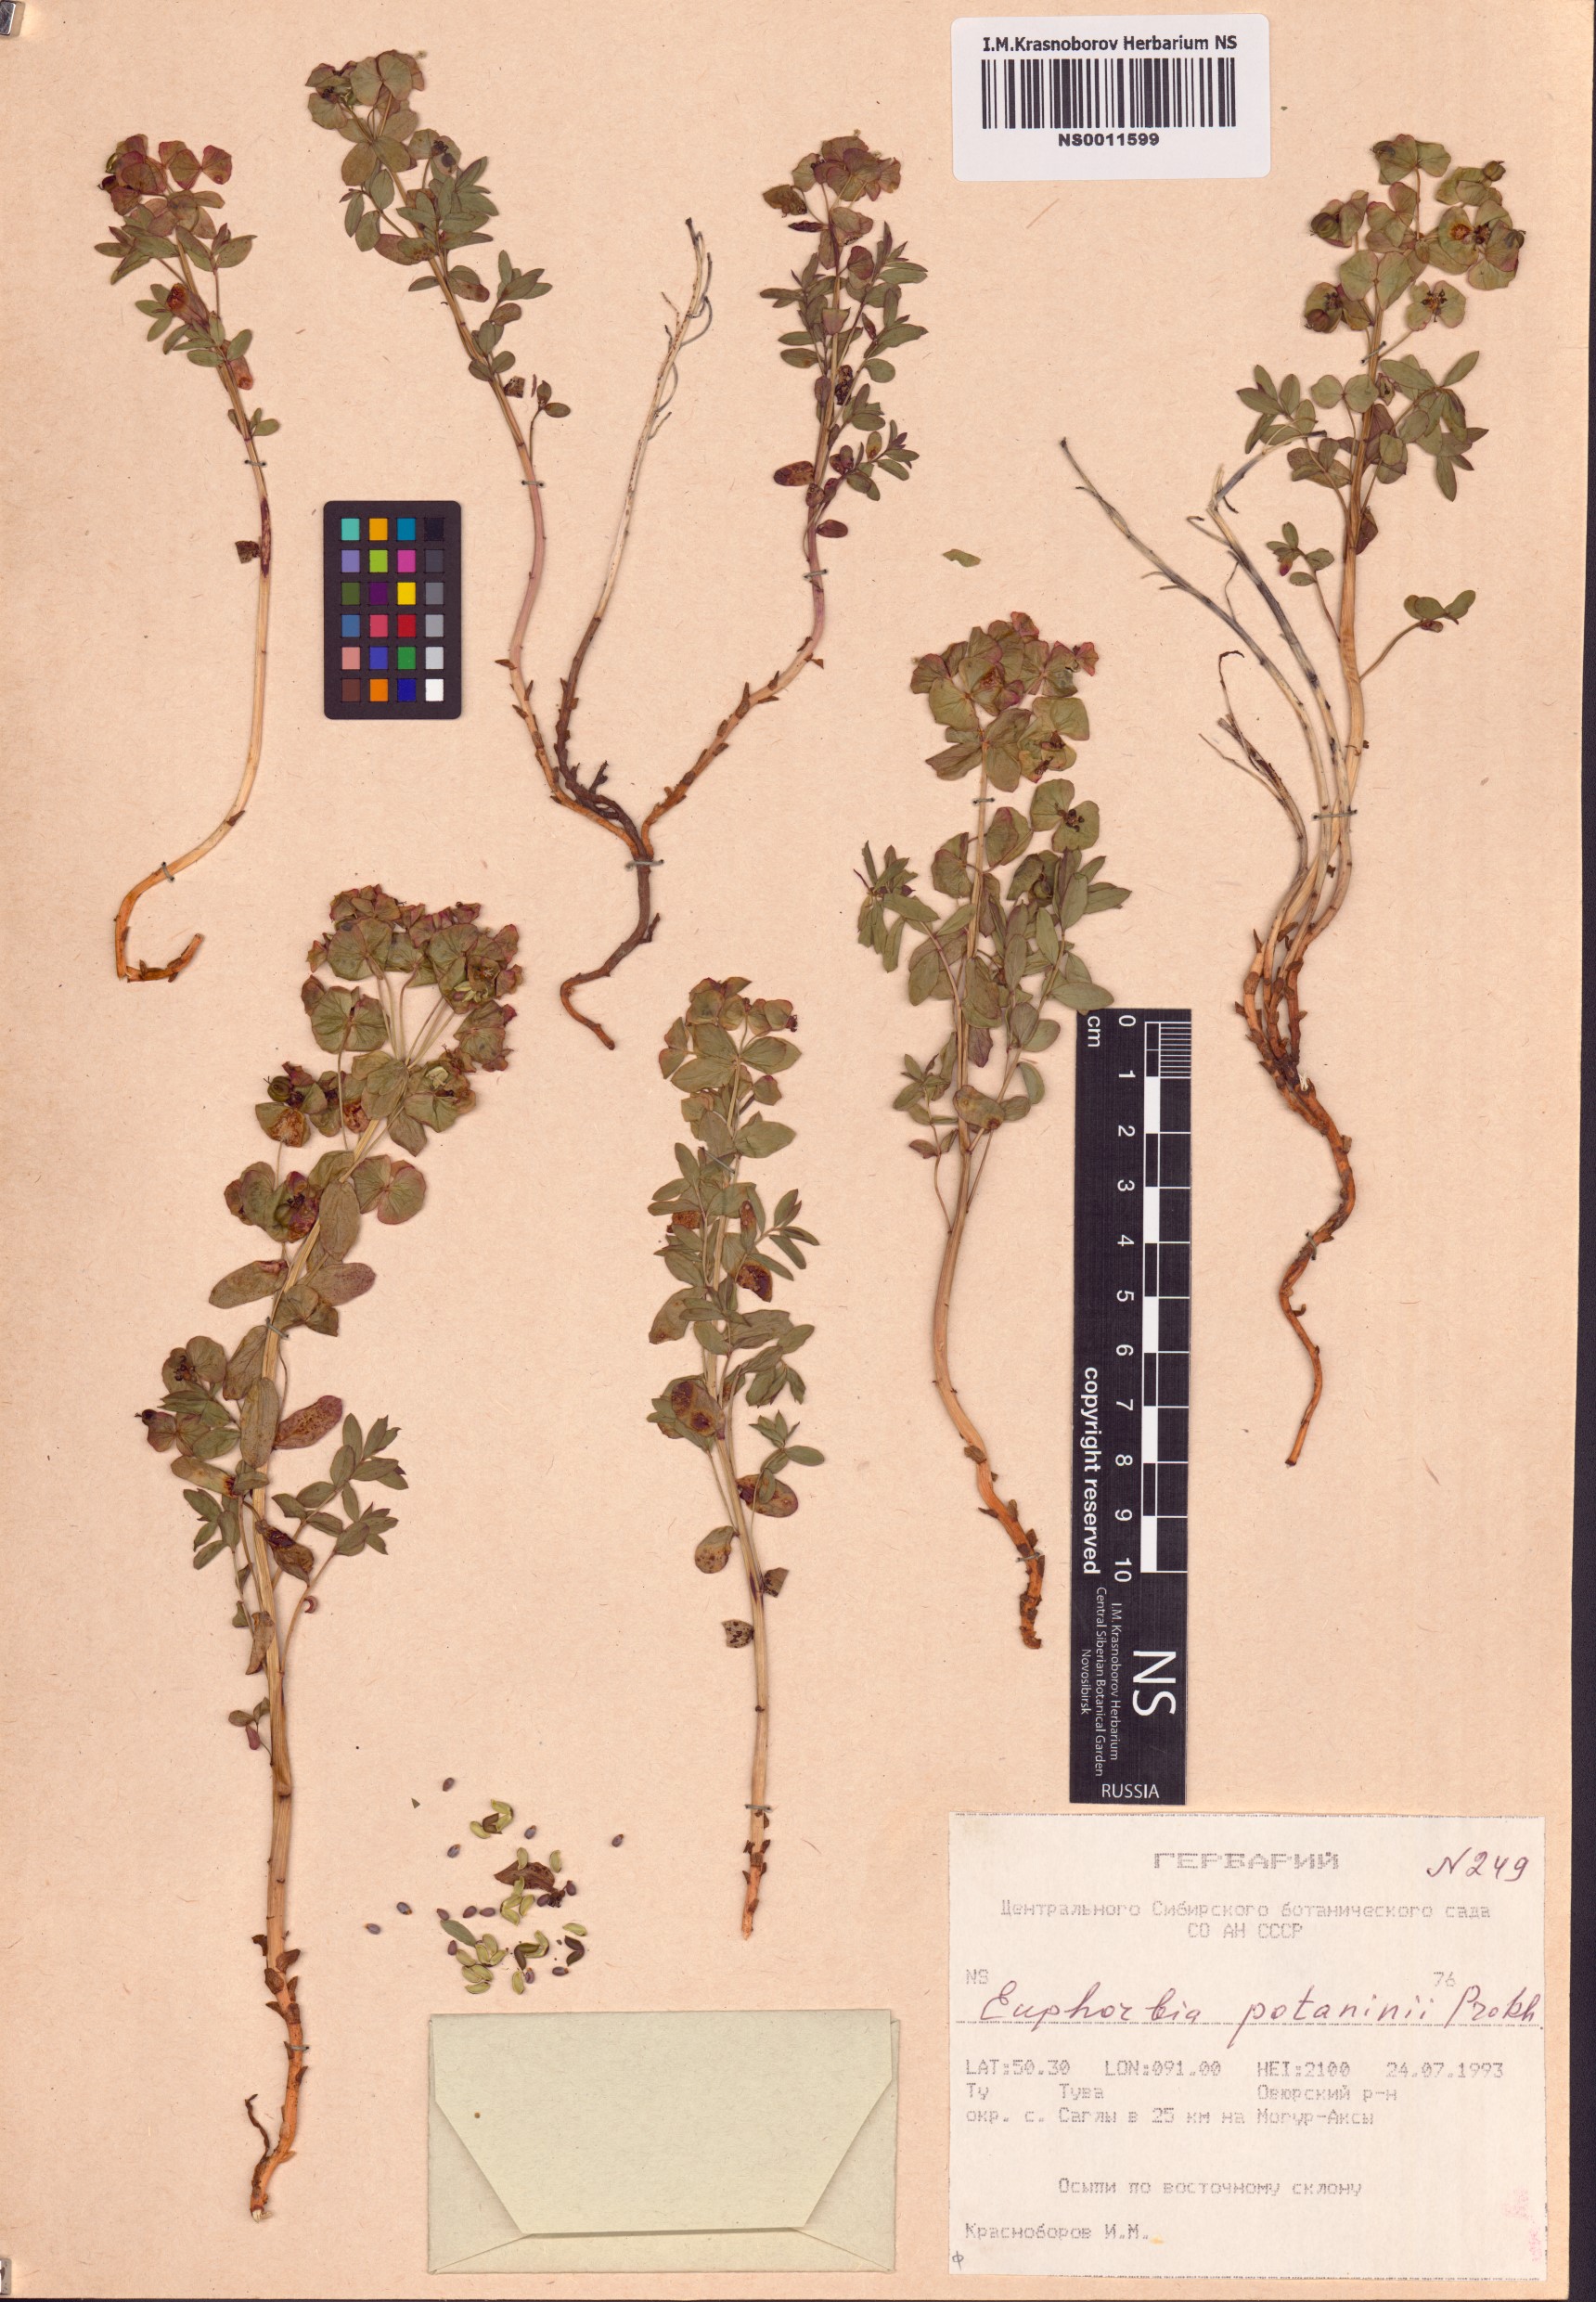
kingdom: Plantae
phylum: Tracheophyta
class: Magnoliopsida
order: Malpighiales
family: Euphorbiaceae
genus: Euphorbia
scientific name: Euphorbia potaninii
